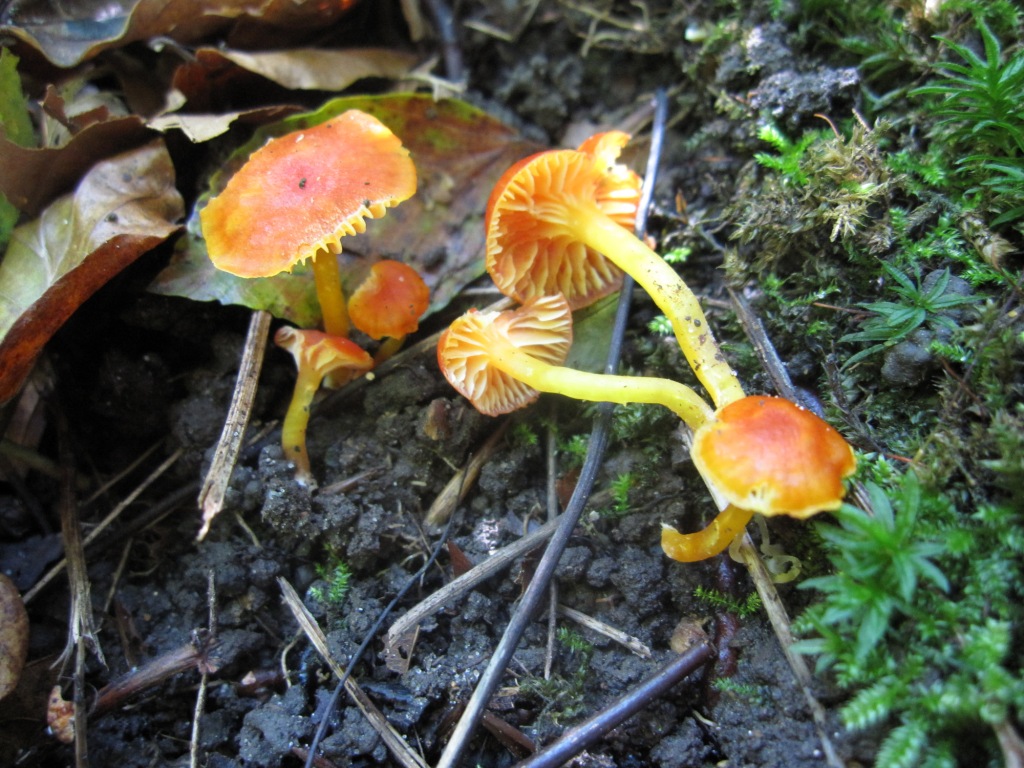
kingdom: Fungi
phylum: Basidiomycota
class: Agaricomycetes
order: Agaricales
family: Hygrophoraceae
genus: Hygrocybe
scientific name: Hygrocybe insipida
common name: liden vokshat
